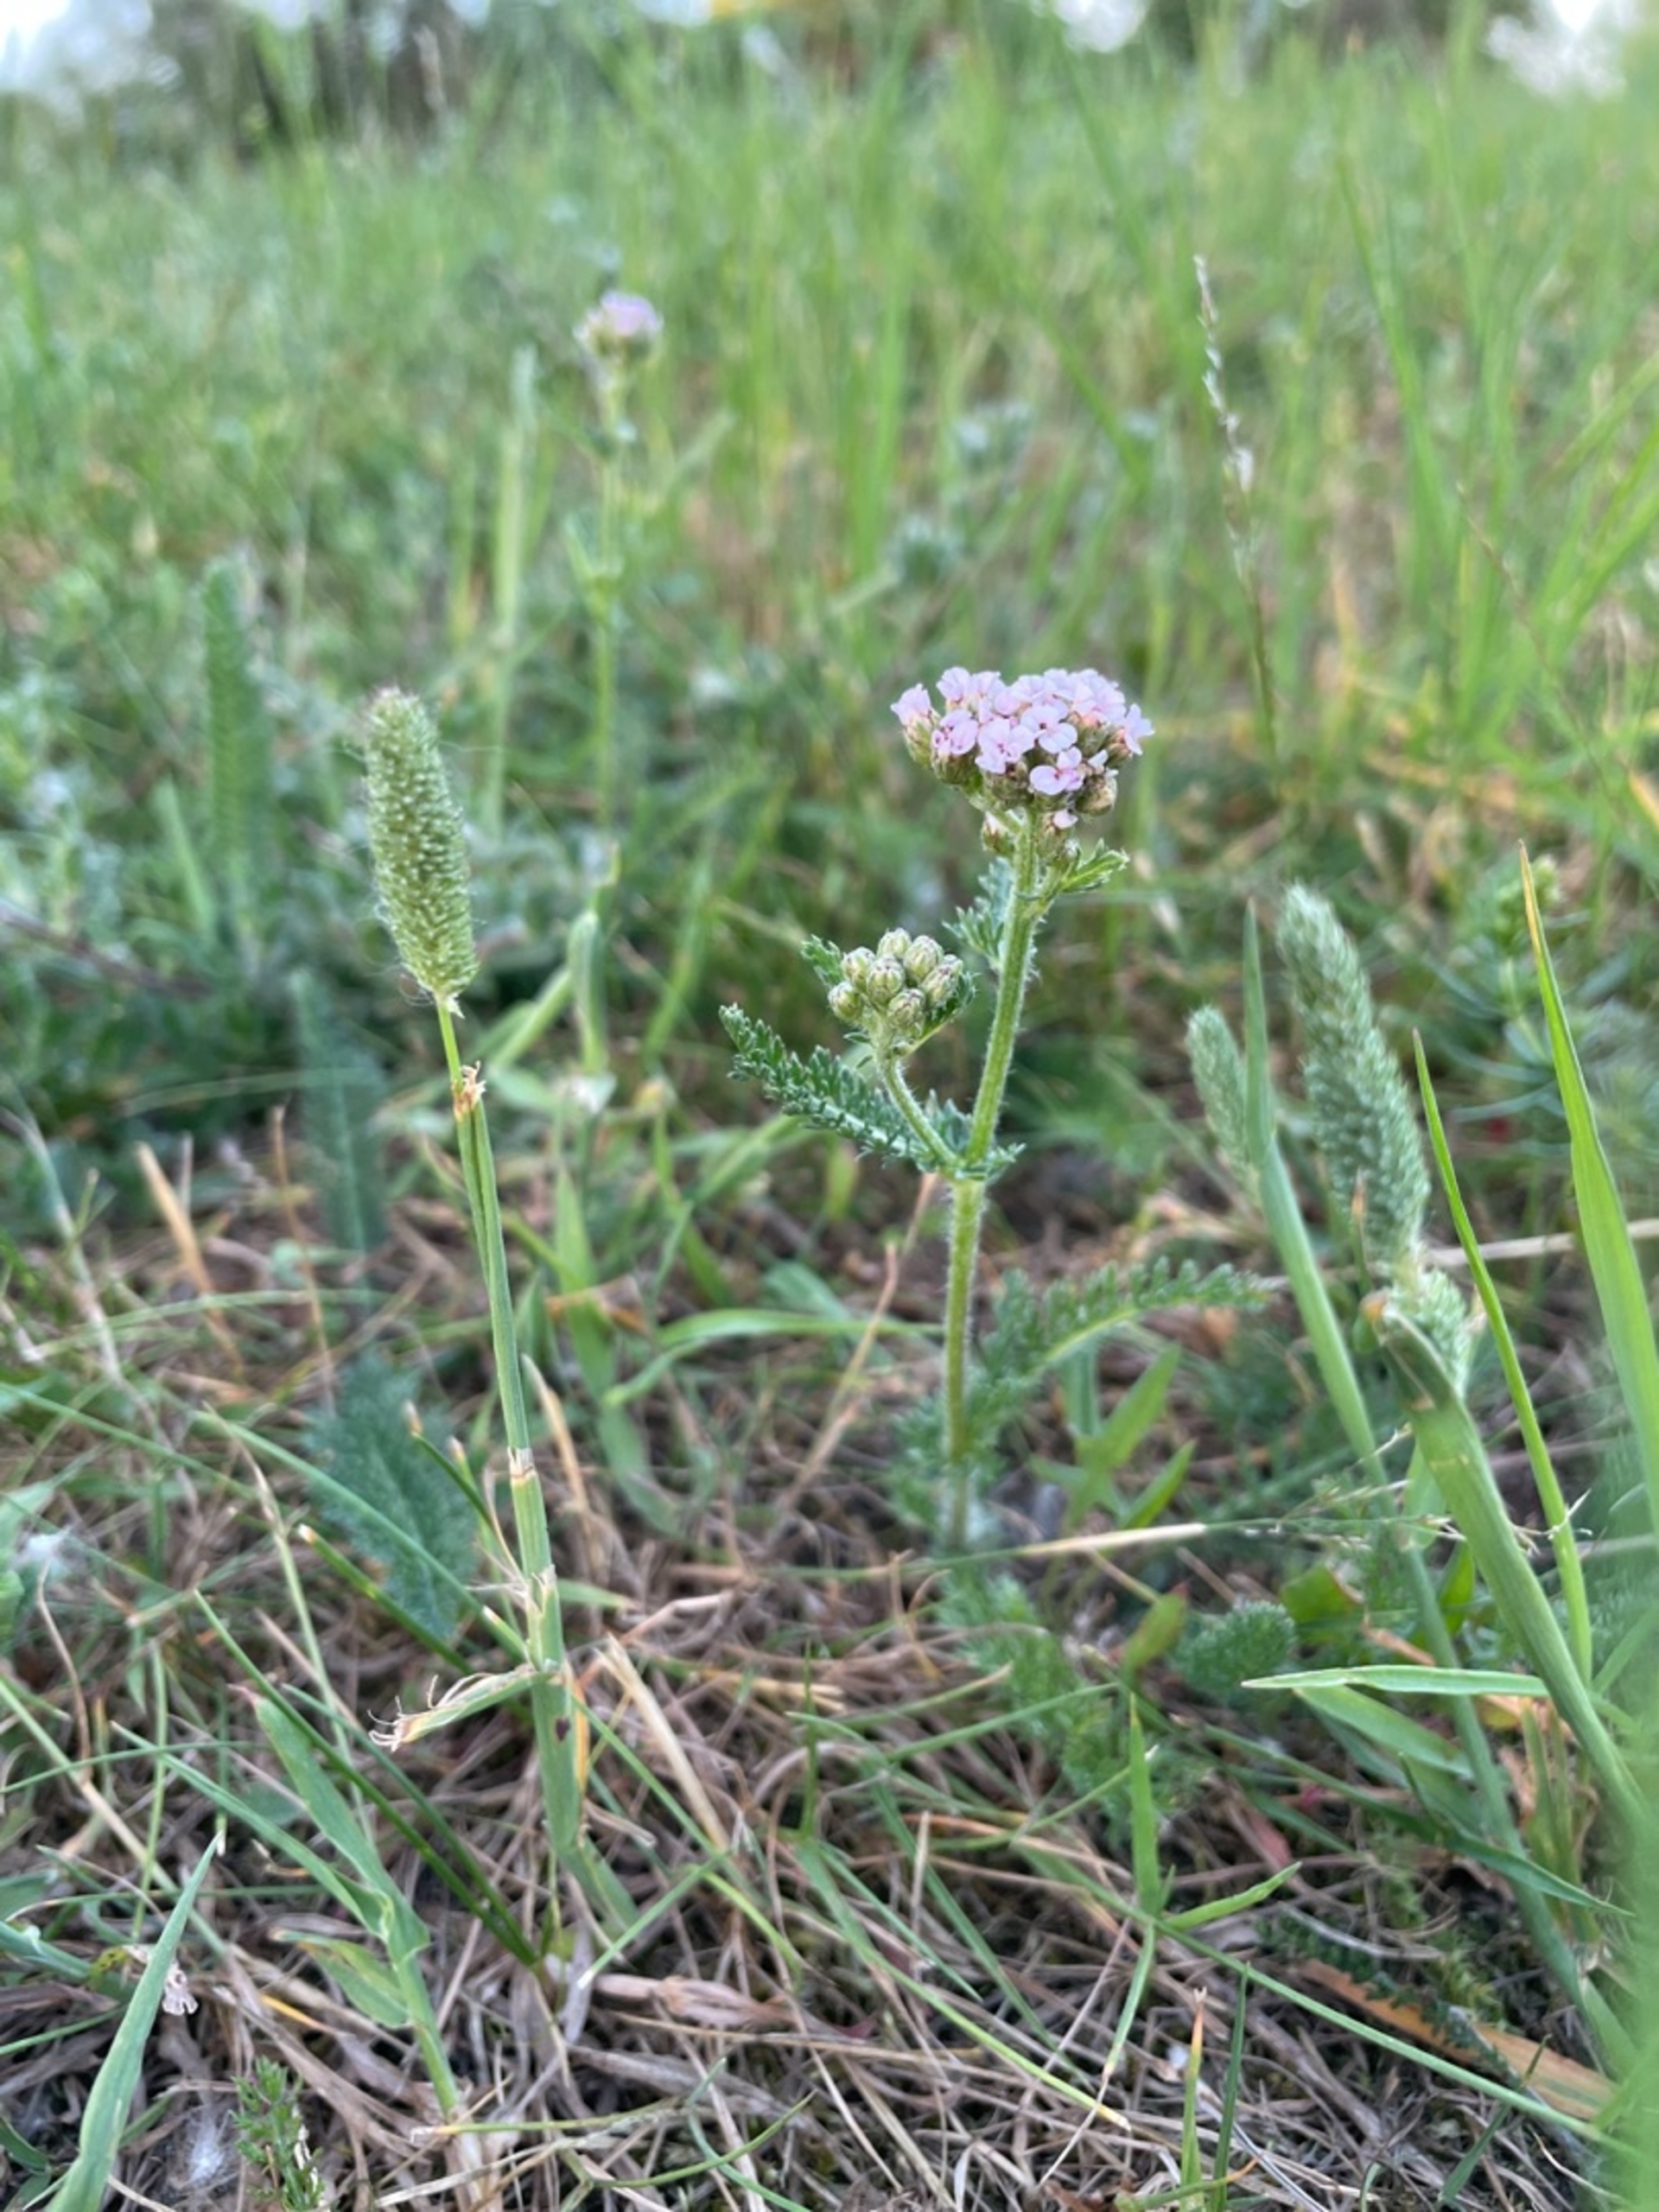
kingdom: Plantae
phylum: Tracheophyta
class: Magnoliopsida
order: Asterales
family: Asteraceae
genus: Achillea
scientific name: Achillea millefolium
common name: Almindelig røllike
